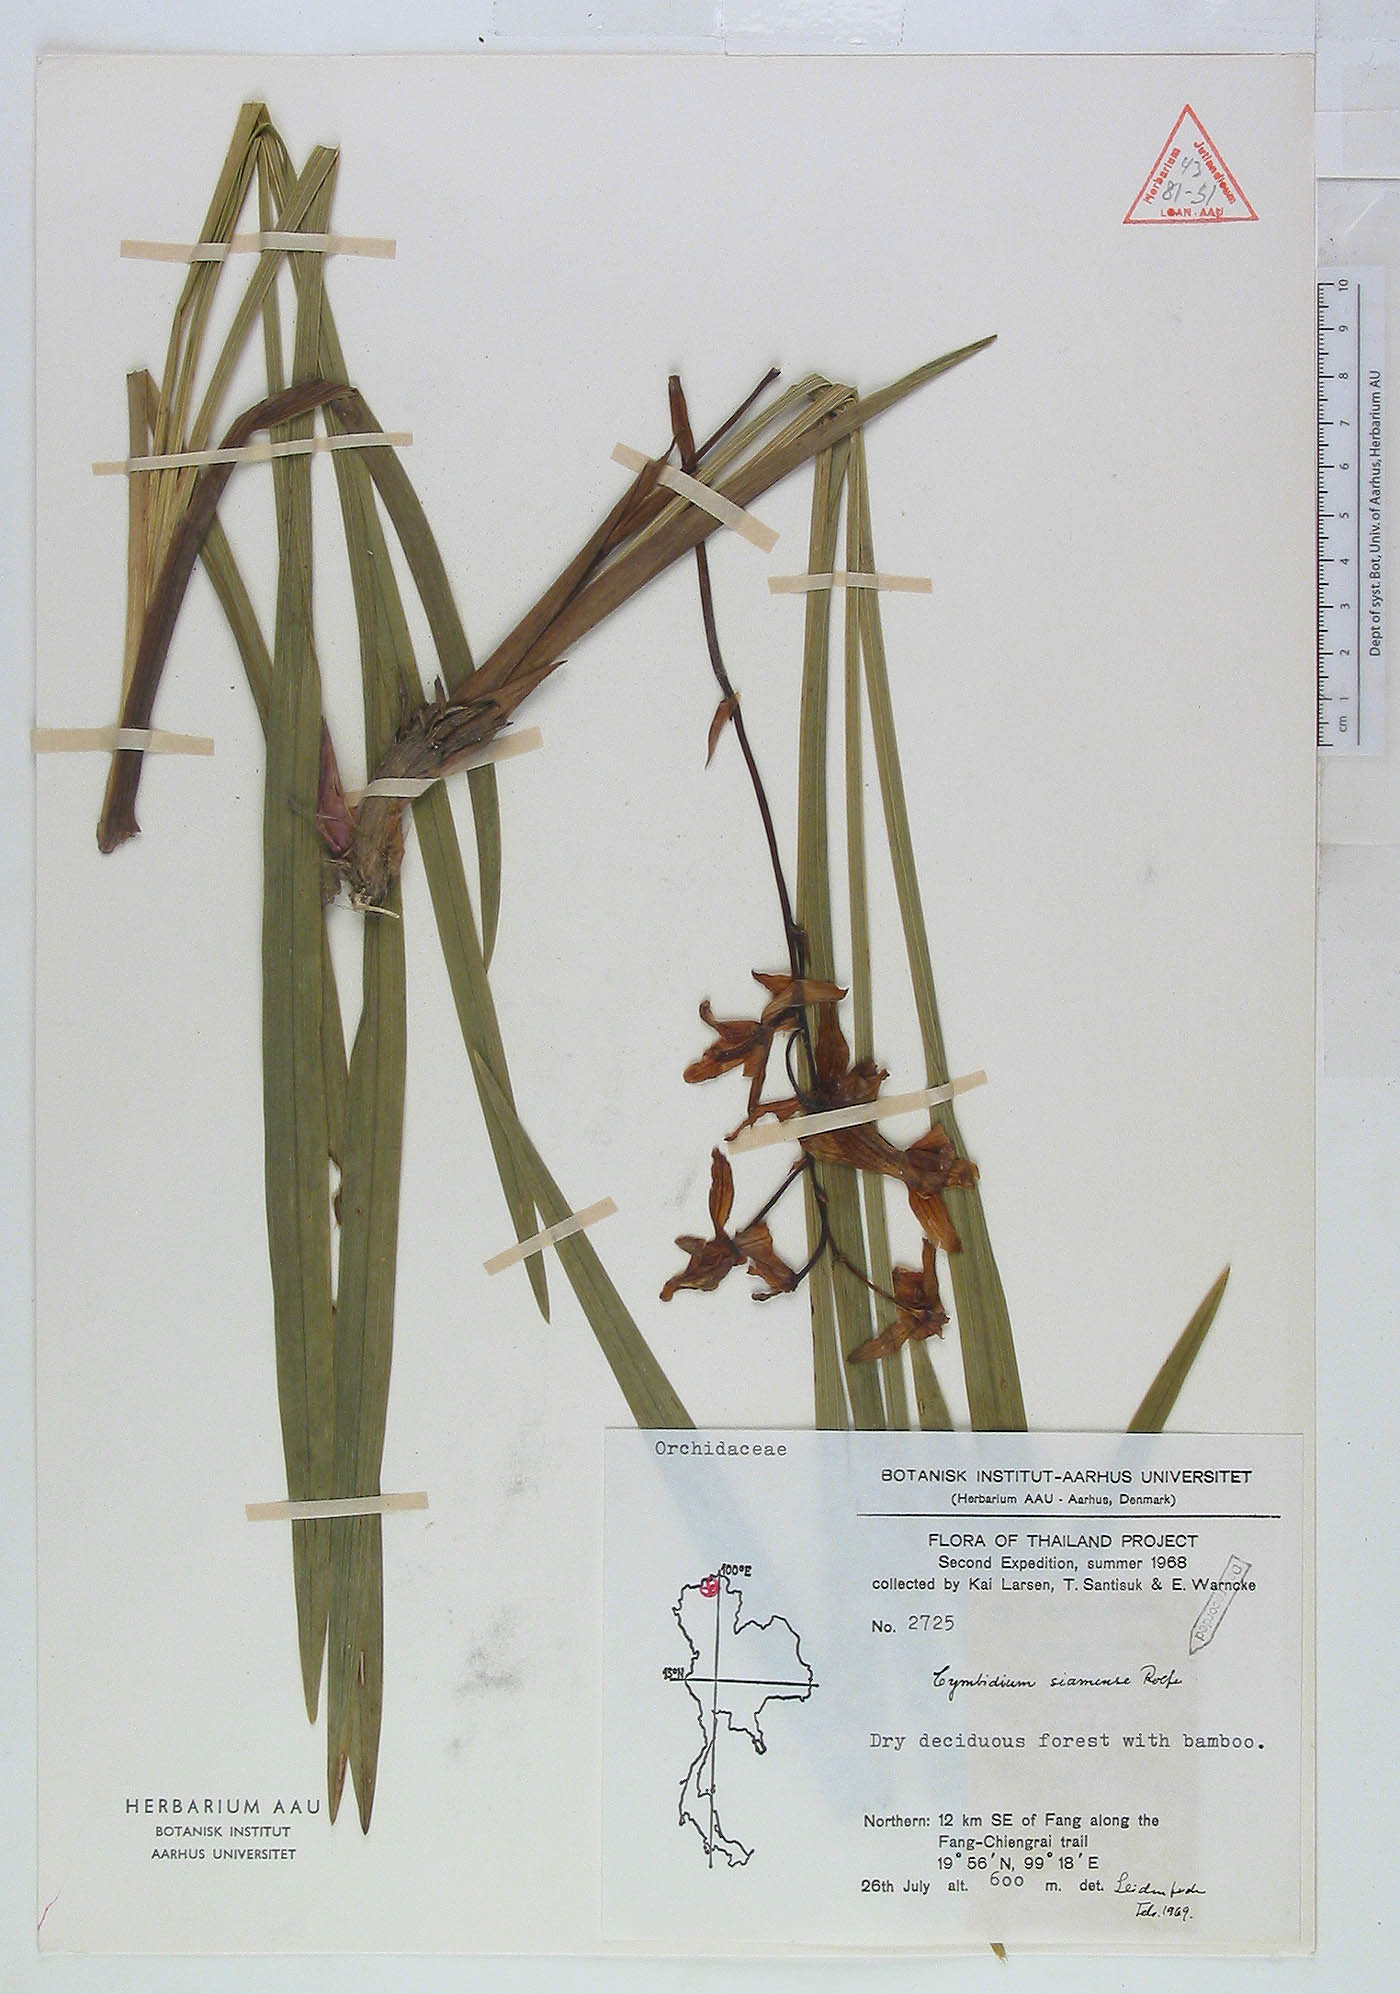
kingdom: Plantae
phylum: Tracheophyta
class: Liliopsida
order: Asparagales
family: Orchidaceae
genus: Cymbidium
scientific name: Cymbidium haematodes
